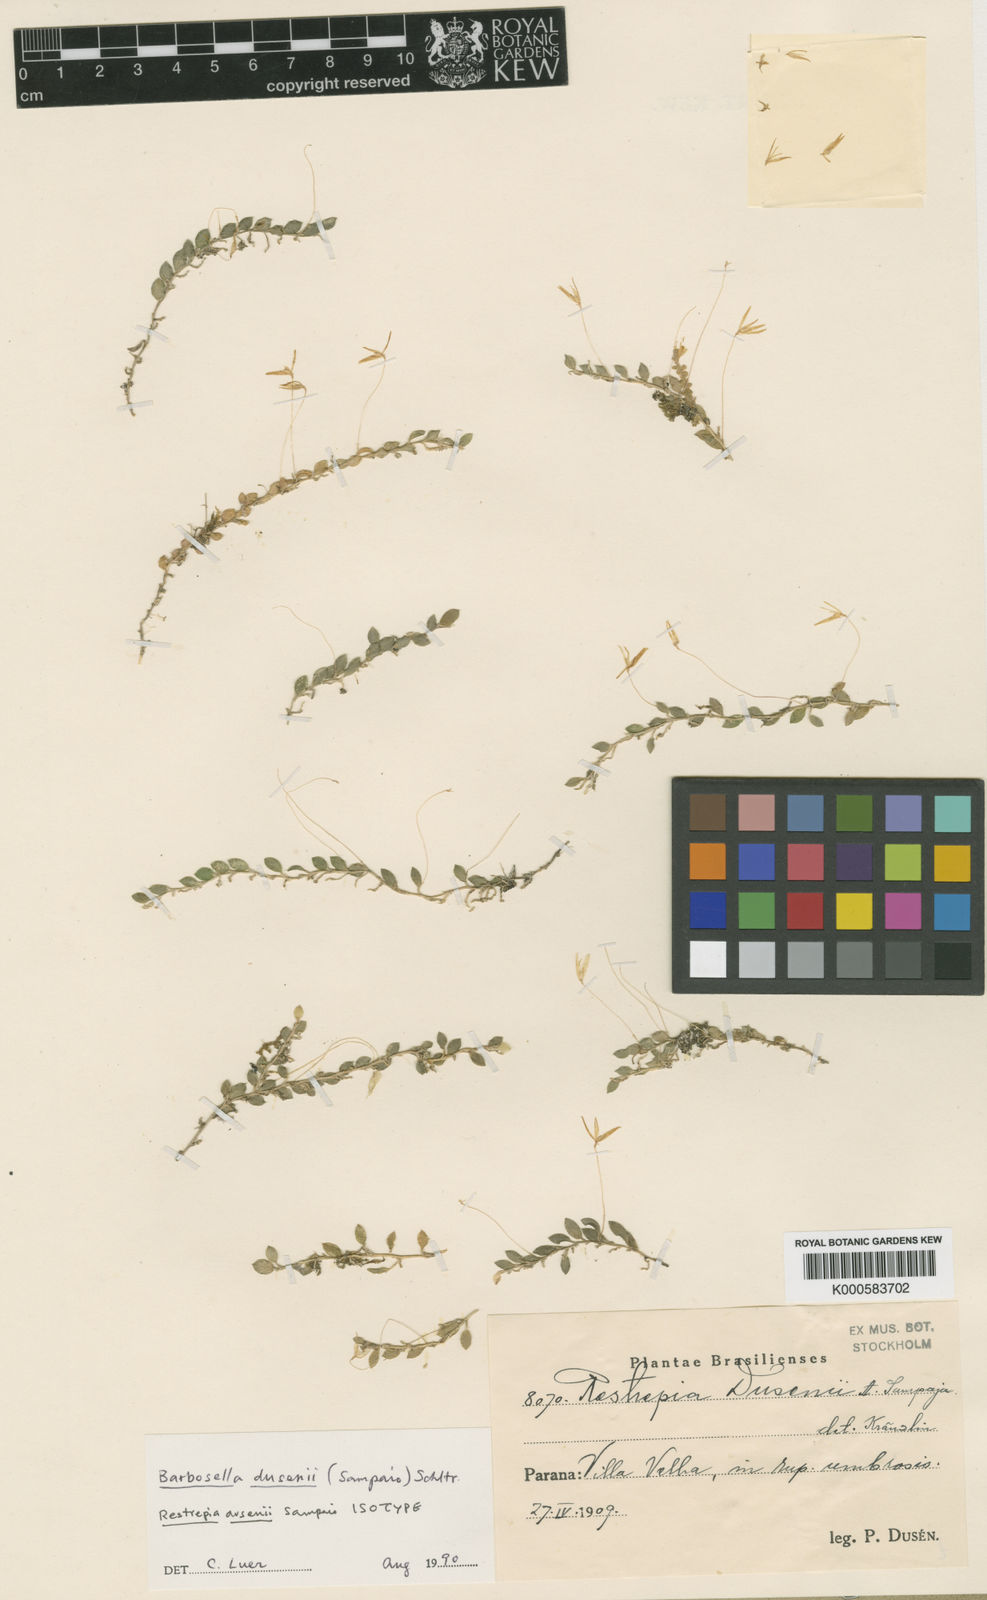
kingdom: Plantae
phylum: Tracheophyta
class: Liliopsida
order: Asparagales
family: Orchidaceae
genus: Barbosella
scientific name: Barbosella dusenii
